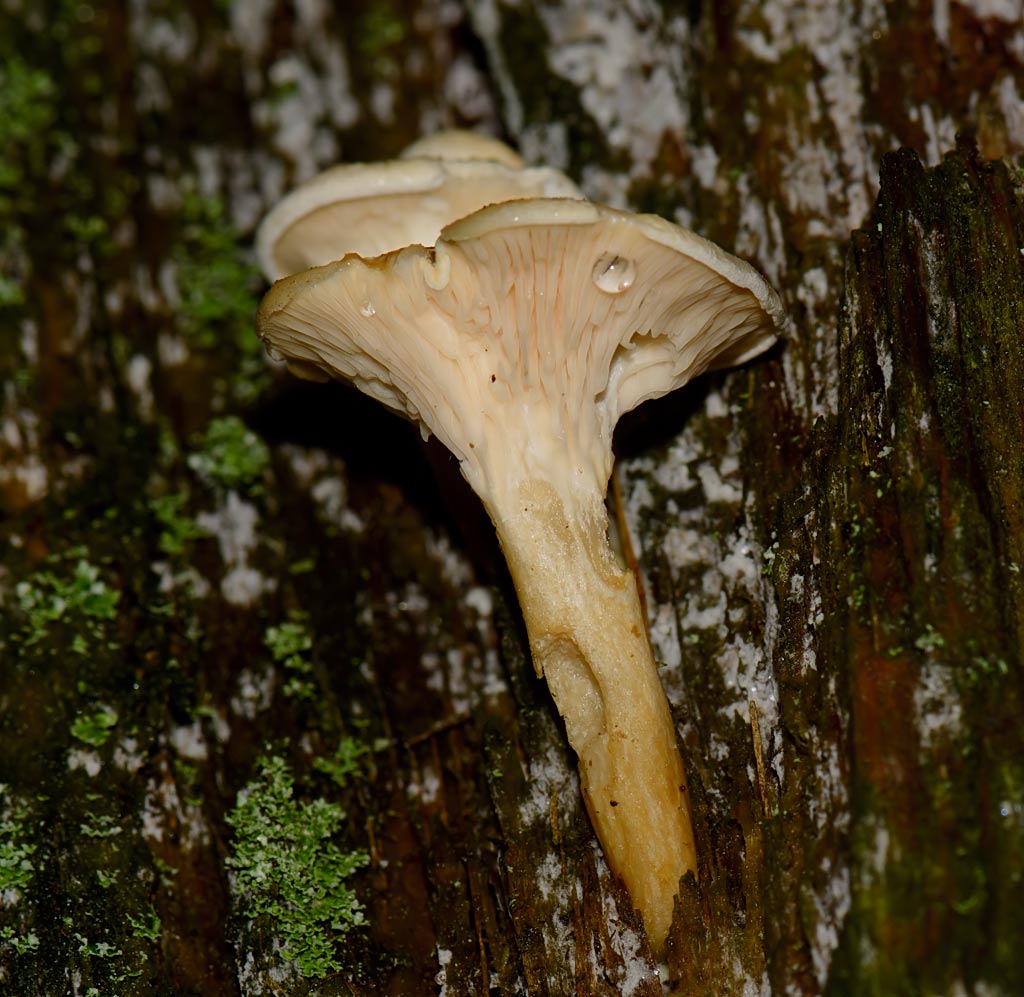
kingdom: Fungi
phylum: Basidiomycota
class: Agaricomycetes
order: Boletales
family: Hygrophoropsidaceae
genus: Hygrophoropsis
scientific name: Hygrophoropsis pallida
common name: bleg orangekantarel
